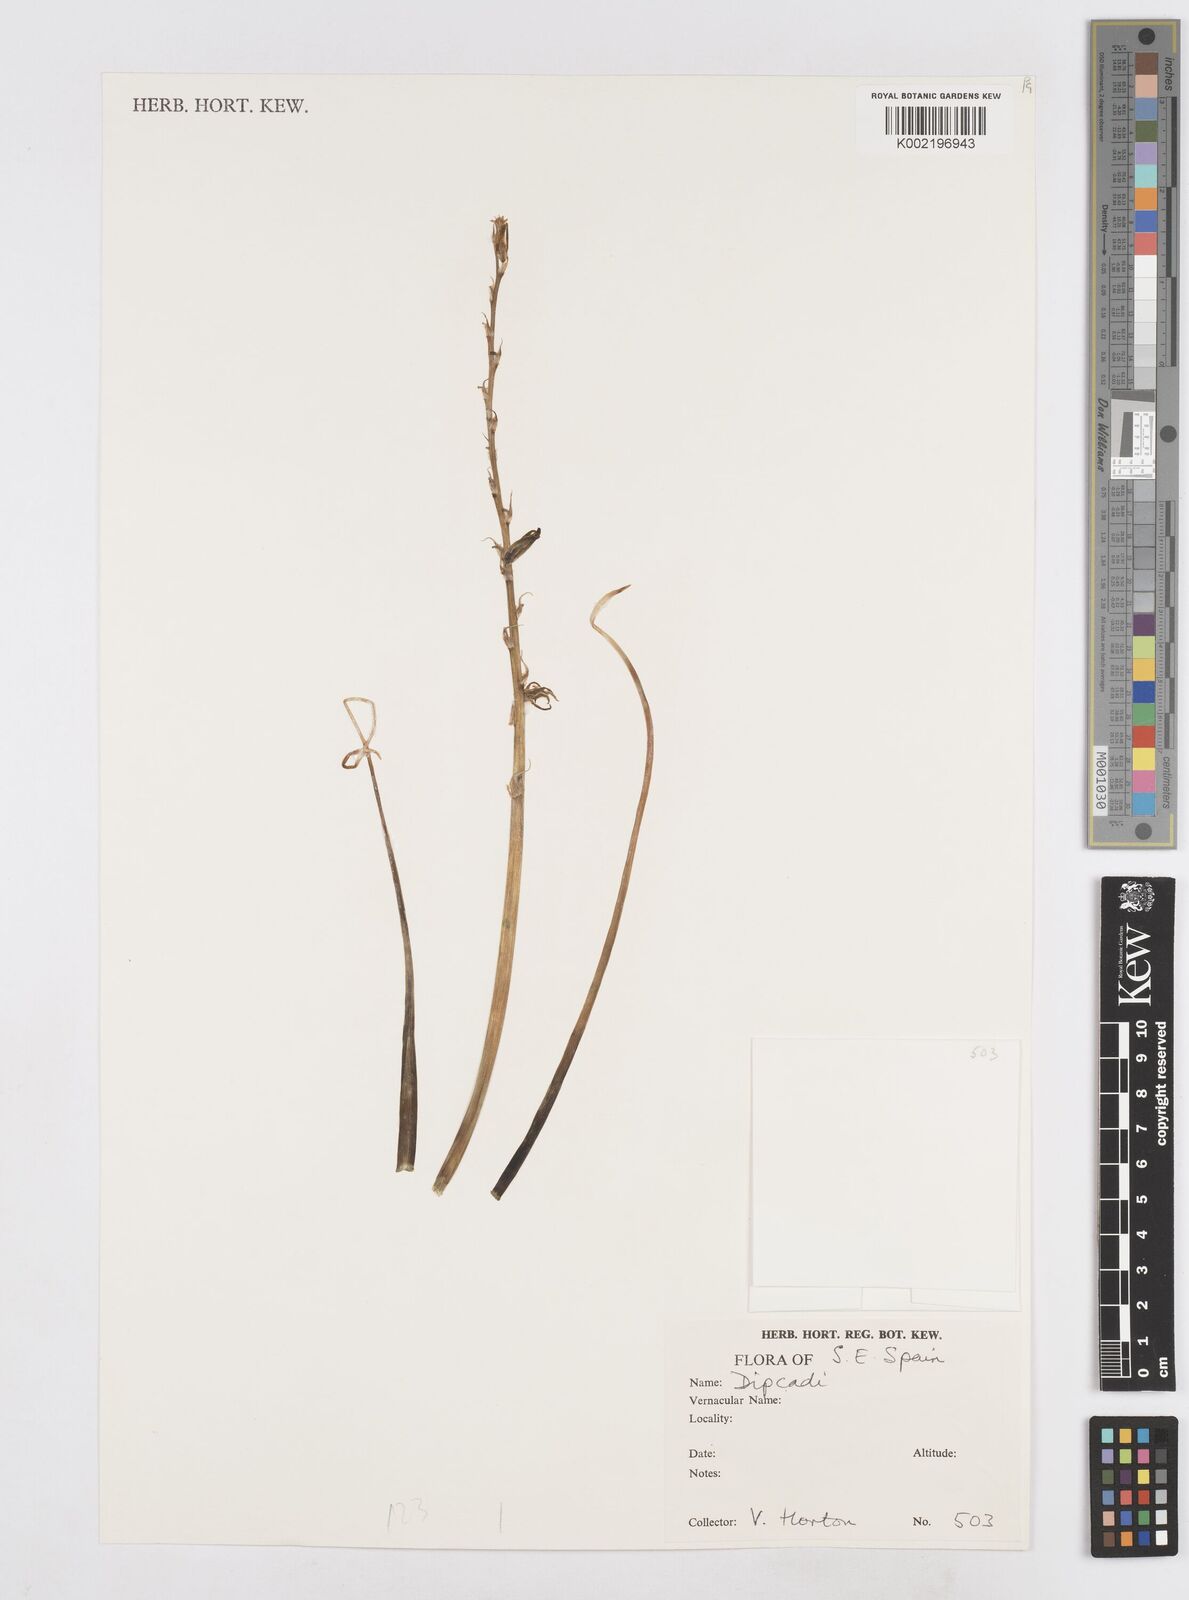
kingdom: Plantae
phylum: Tracheophyta
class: Liliopsida
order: Asparagales
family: Asparagaceae
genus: Dipcadi
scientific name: Dipcadi serotinum
